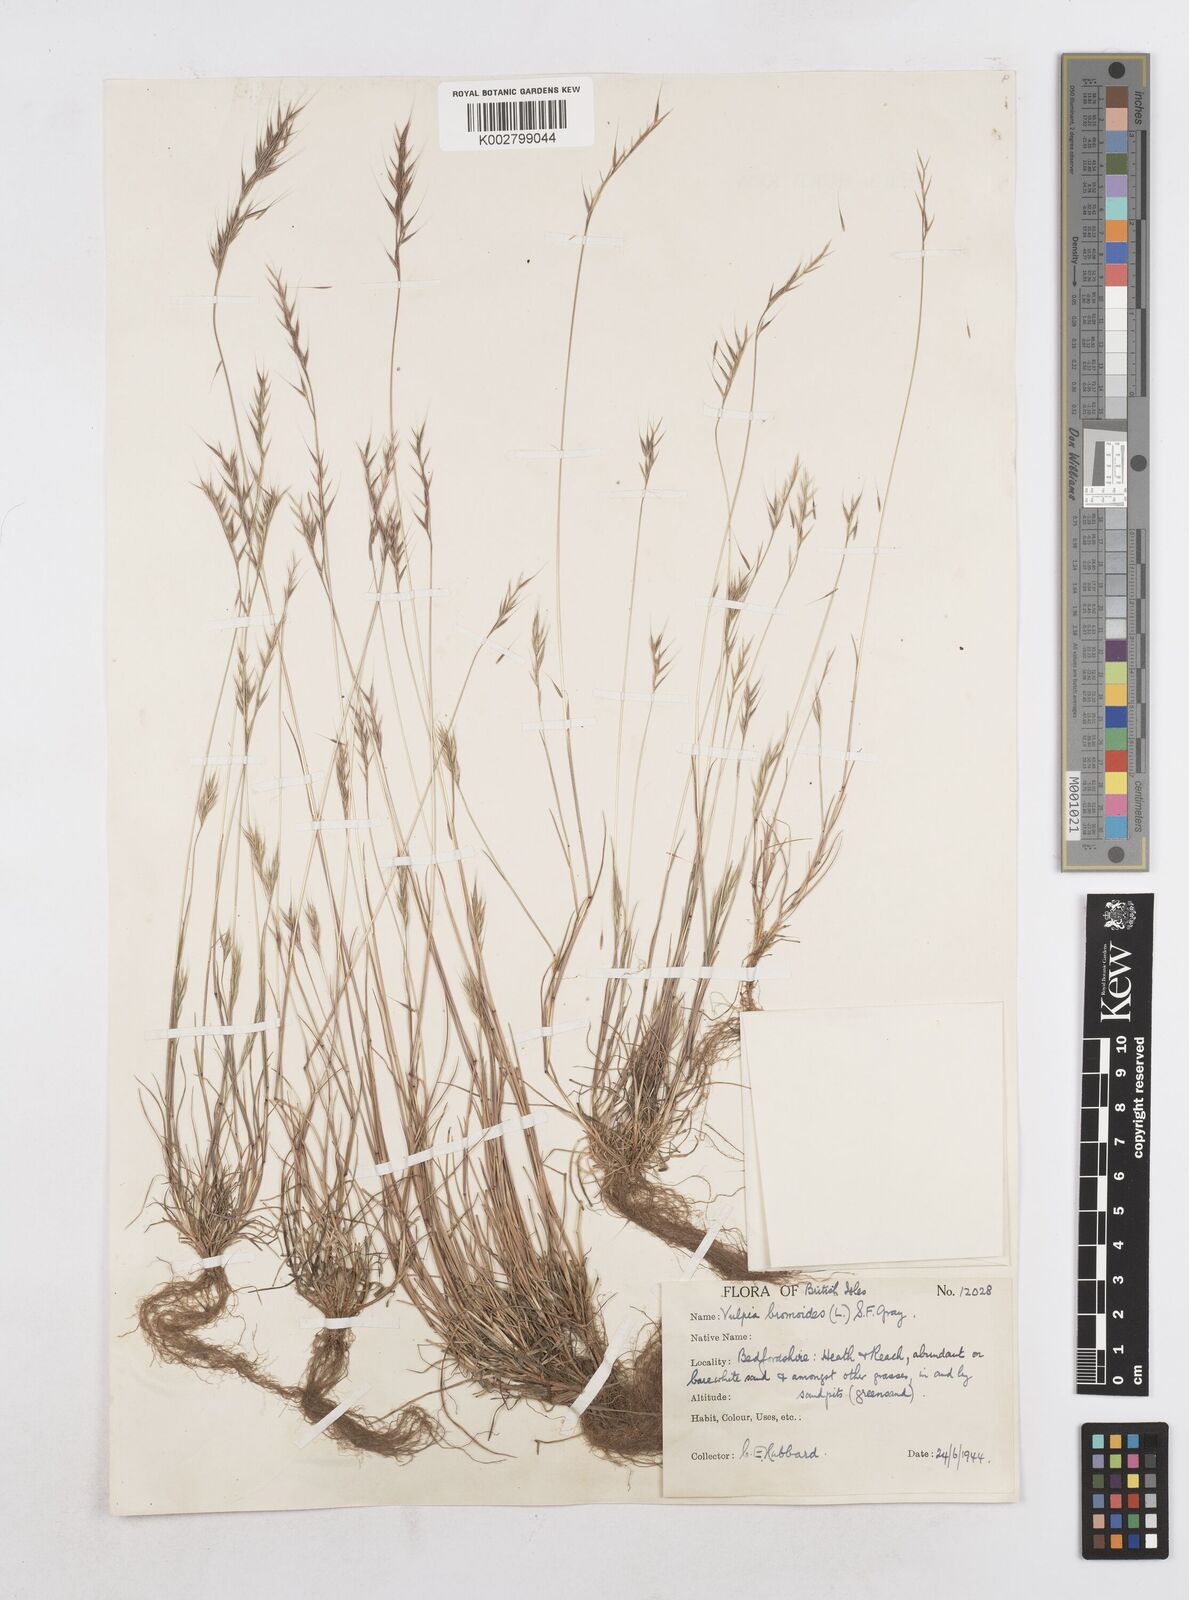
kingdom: Plantae
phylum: Tracheophyta
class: Liliopsida
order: Poales
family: Poaceae
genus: Festuca
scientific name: Festuca bromoides
